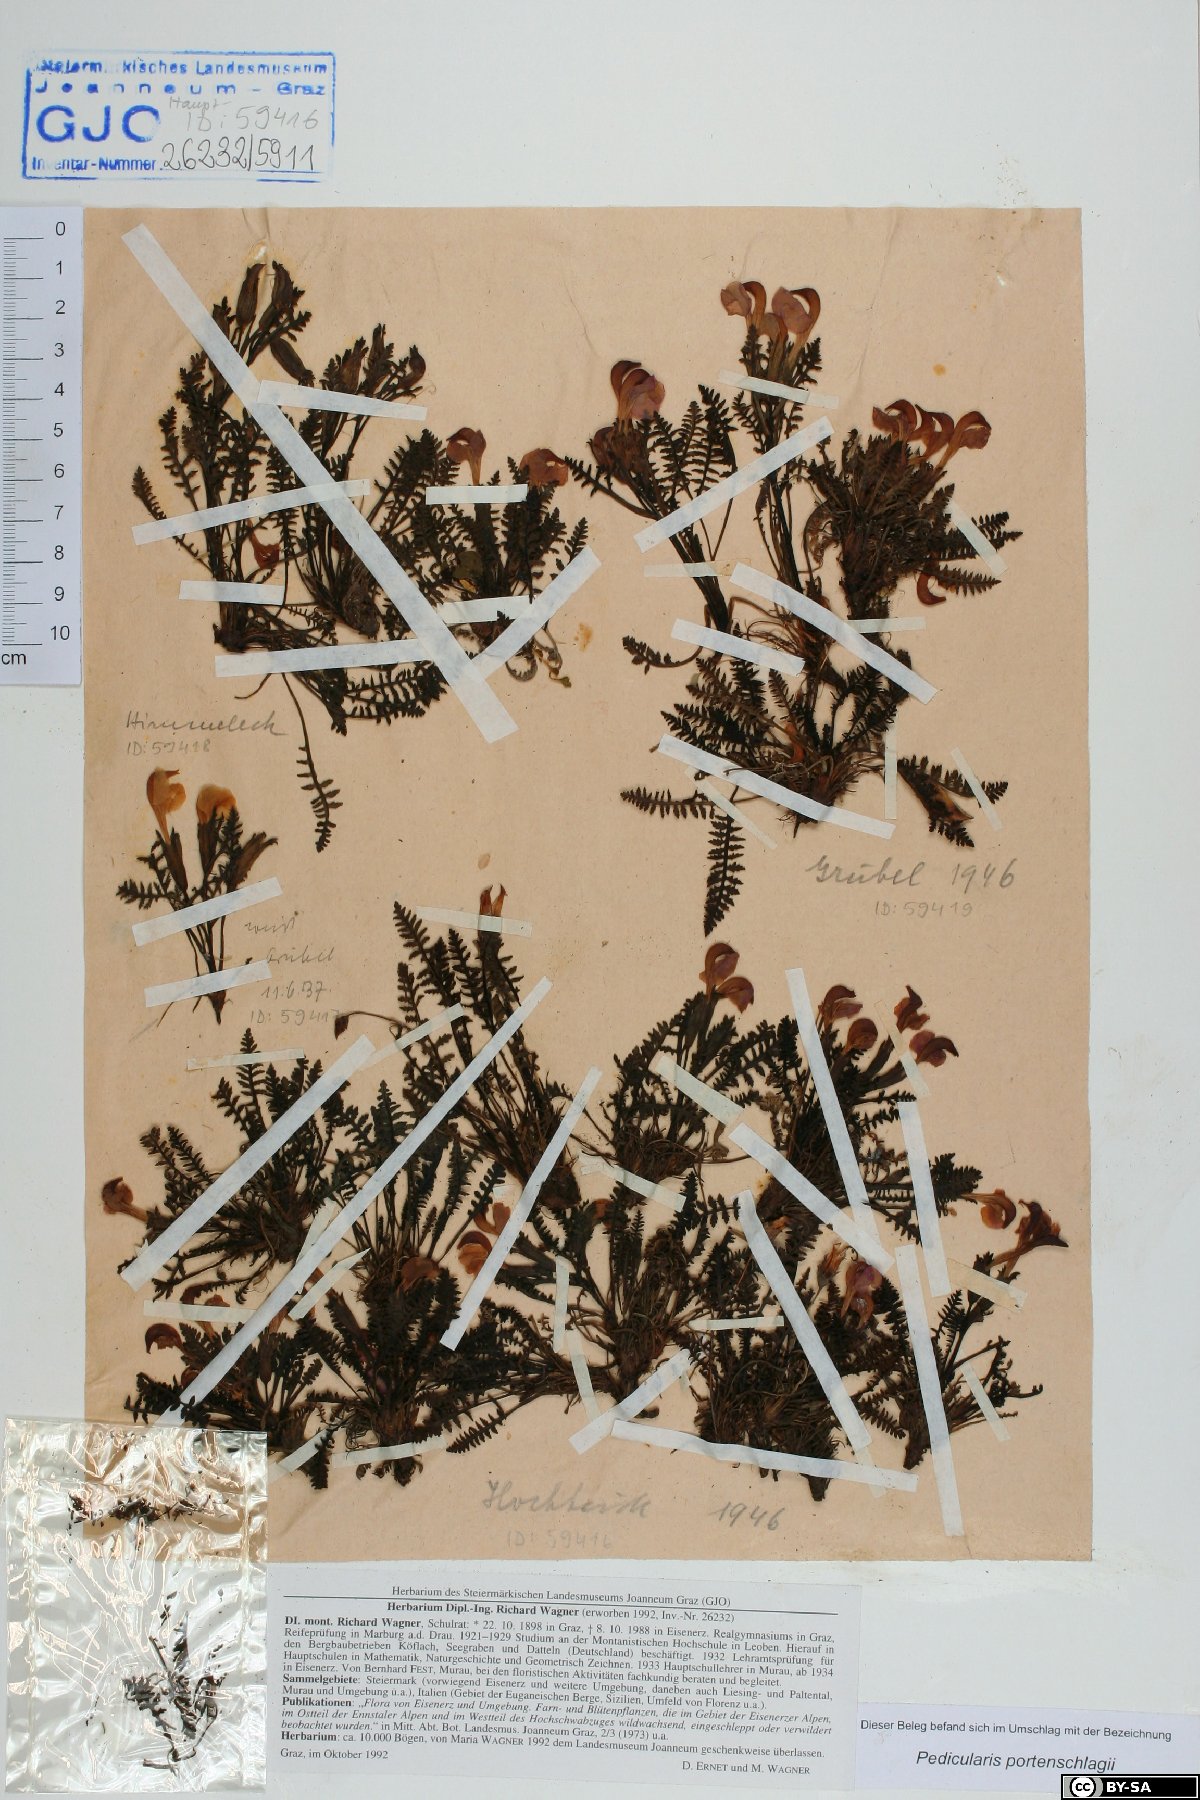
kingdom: Plantae
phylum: Tracheophyta
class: Magnoliopsida
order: Lamiales
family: Orobanchaceae
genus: Pedicularis
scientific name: Pedicularis portenschlagii
